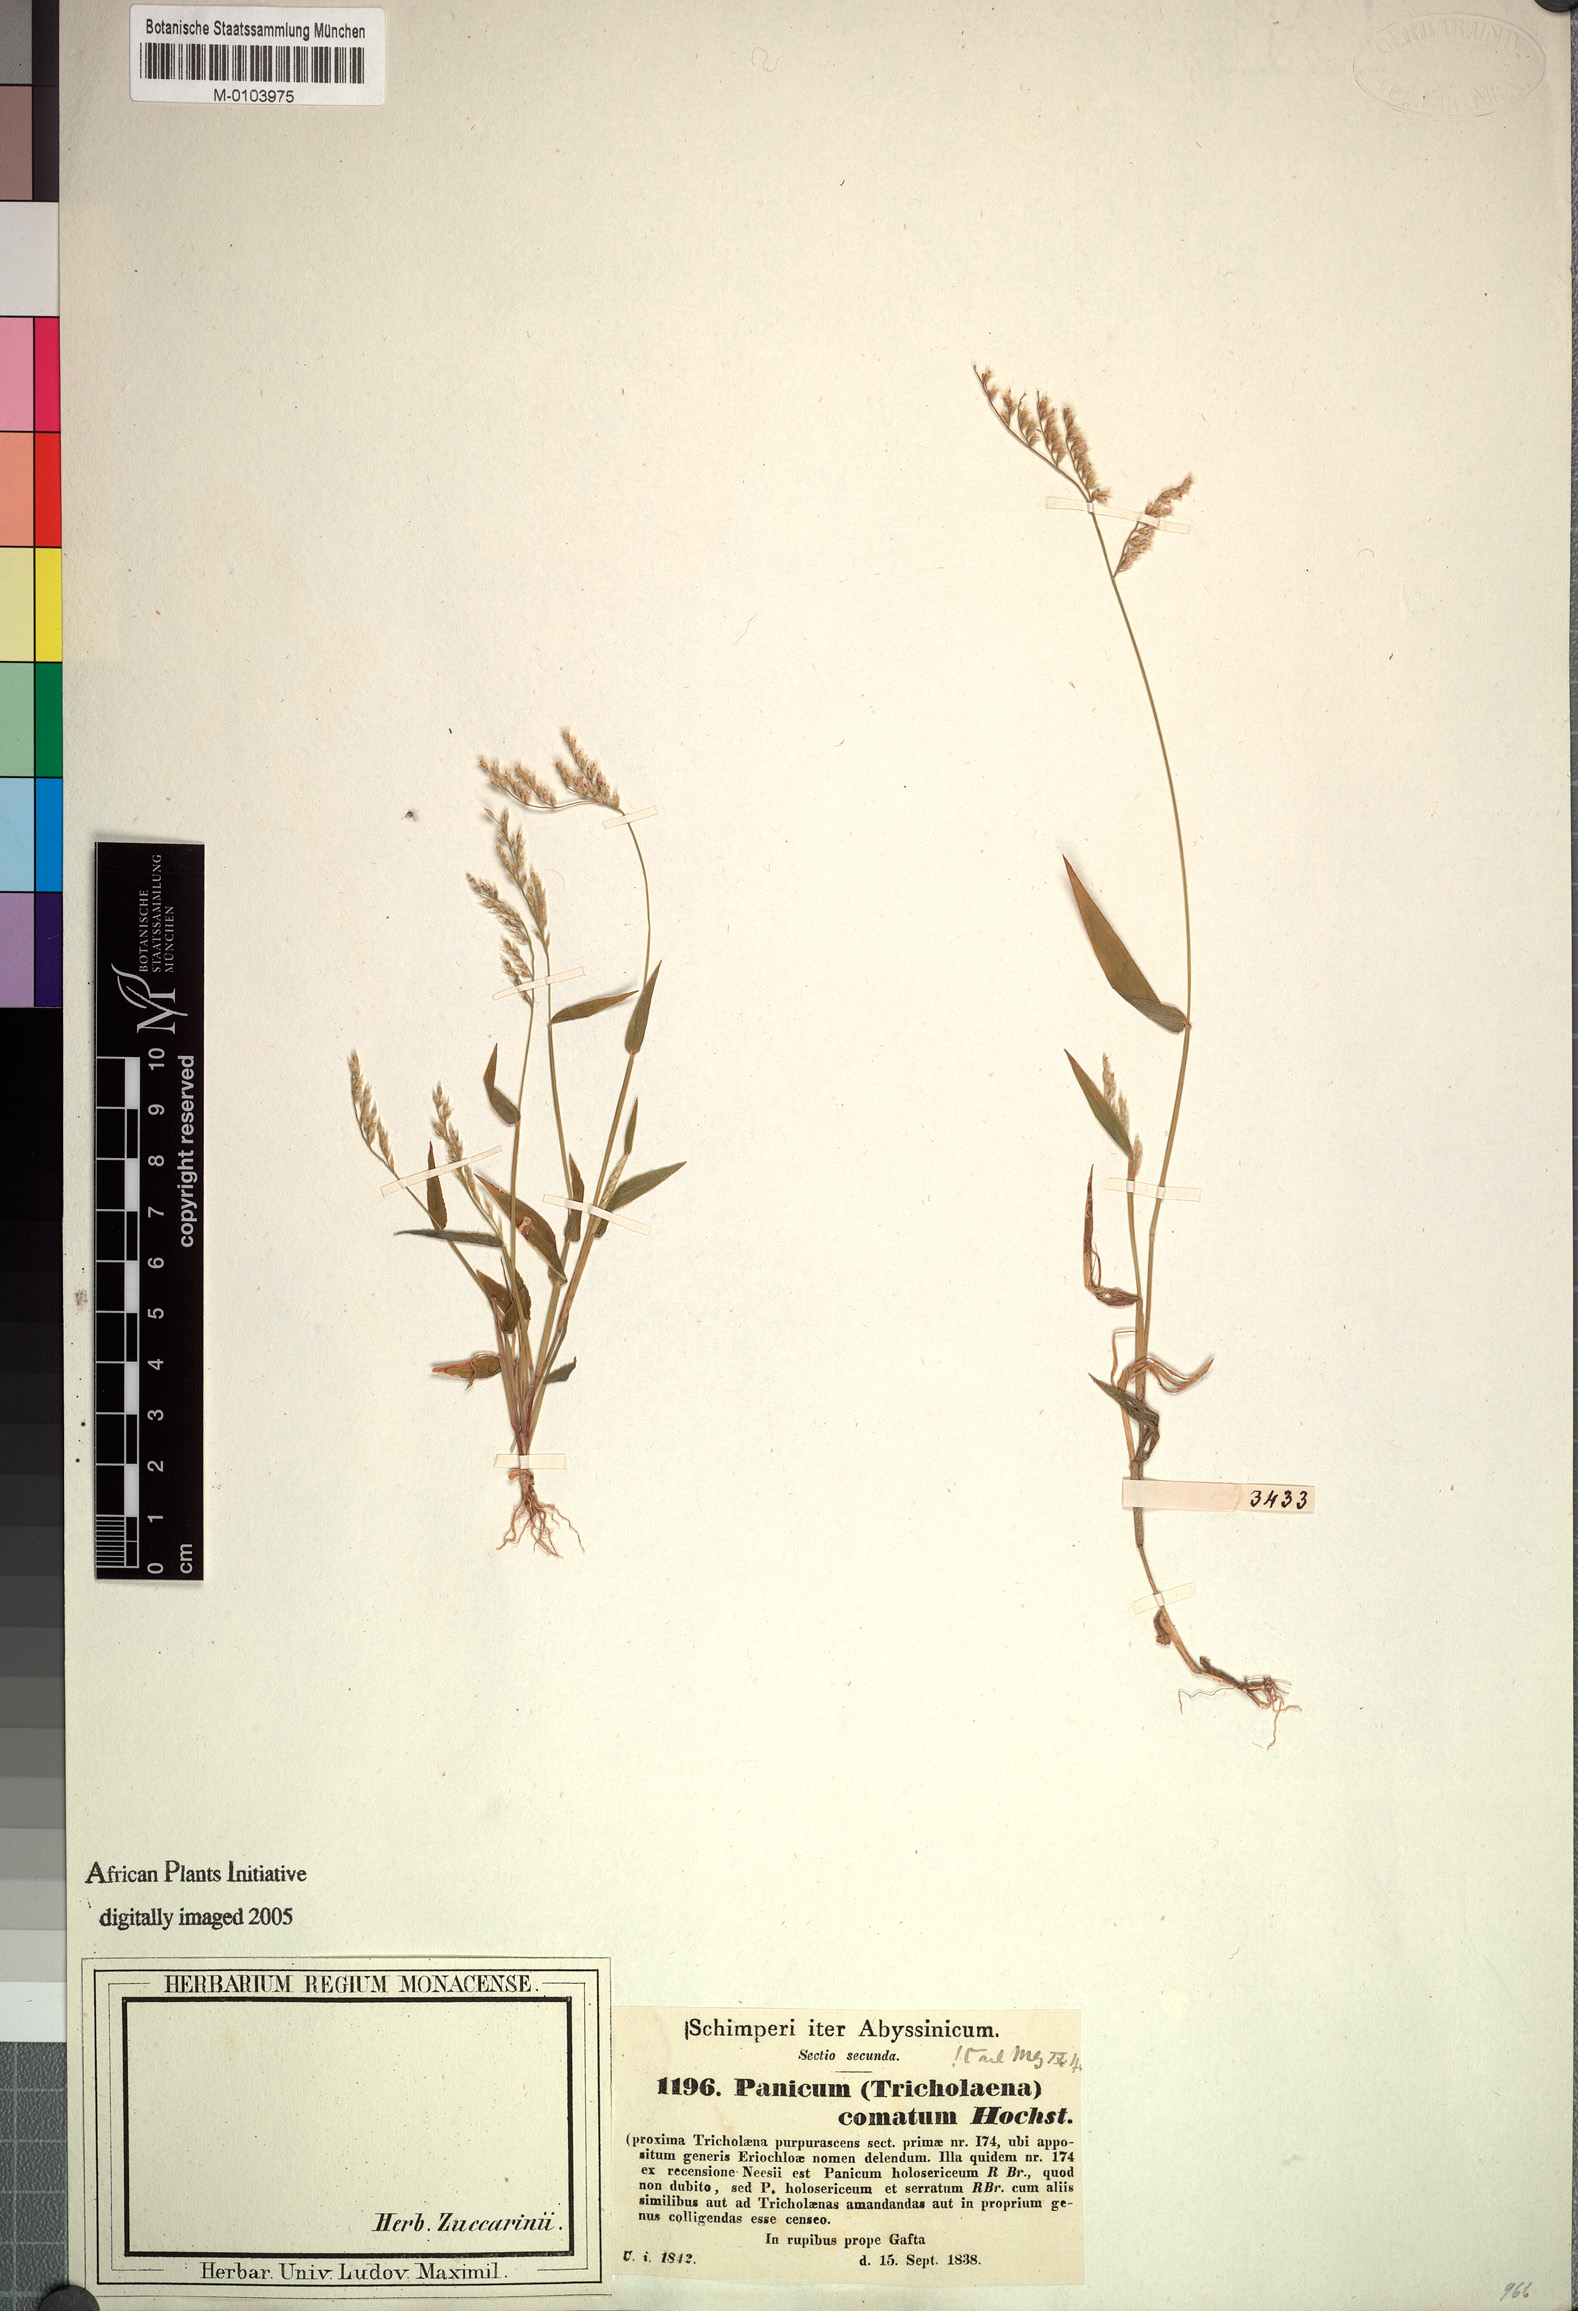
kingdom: Plantae
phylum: Tracheophyta
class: Liliopsida
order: Poales
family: Poaceae
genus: Urochloa
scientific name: Urochloa comata
